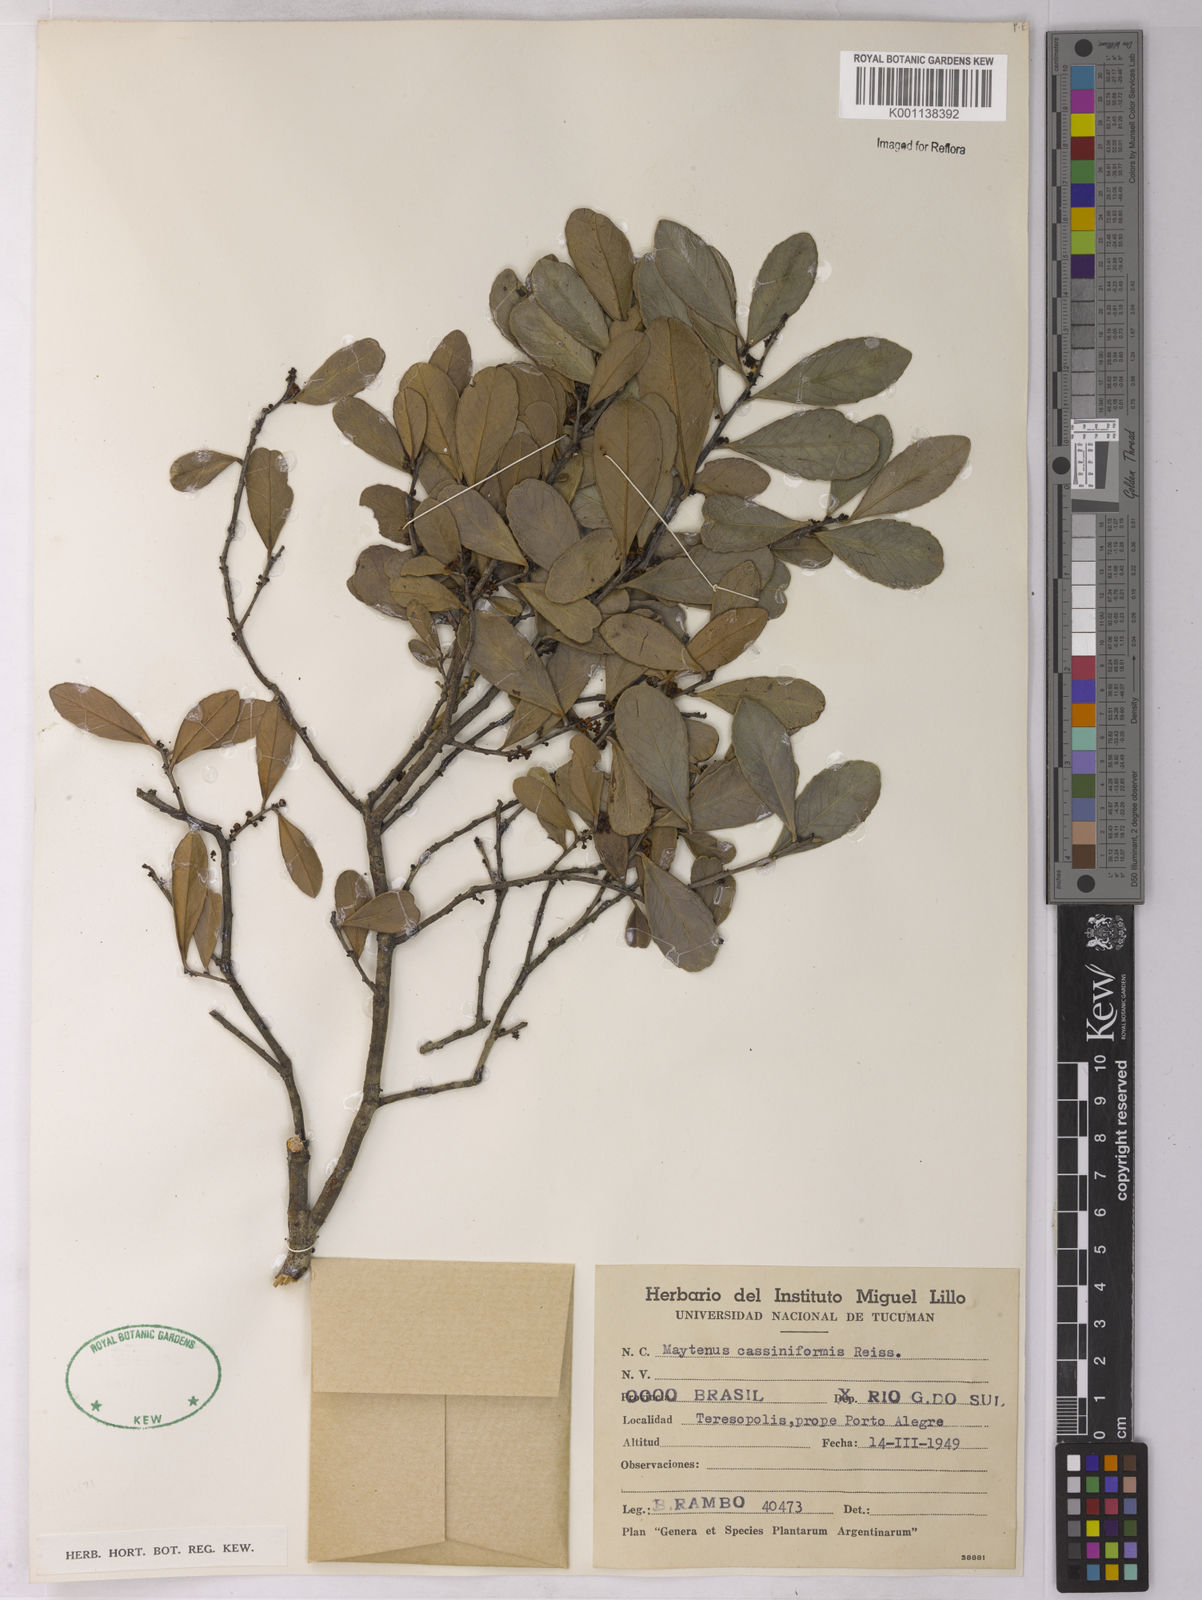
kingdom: Plantae
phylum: Tracheophyta
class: Magnoliopsida
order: Celastrales
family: Celastraceae
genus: Maytenus
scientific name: Maytenus
